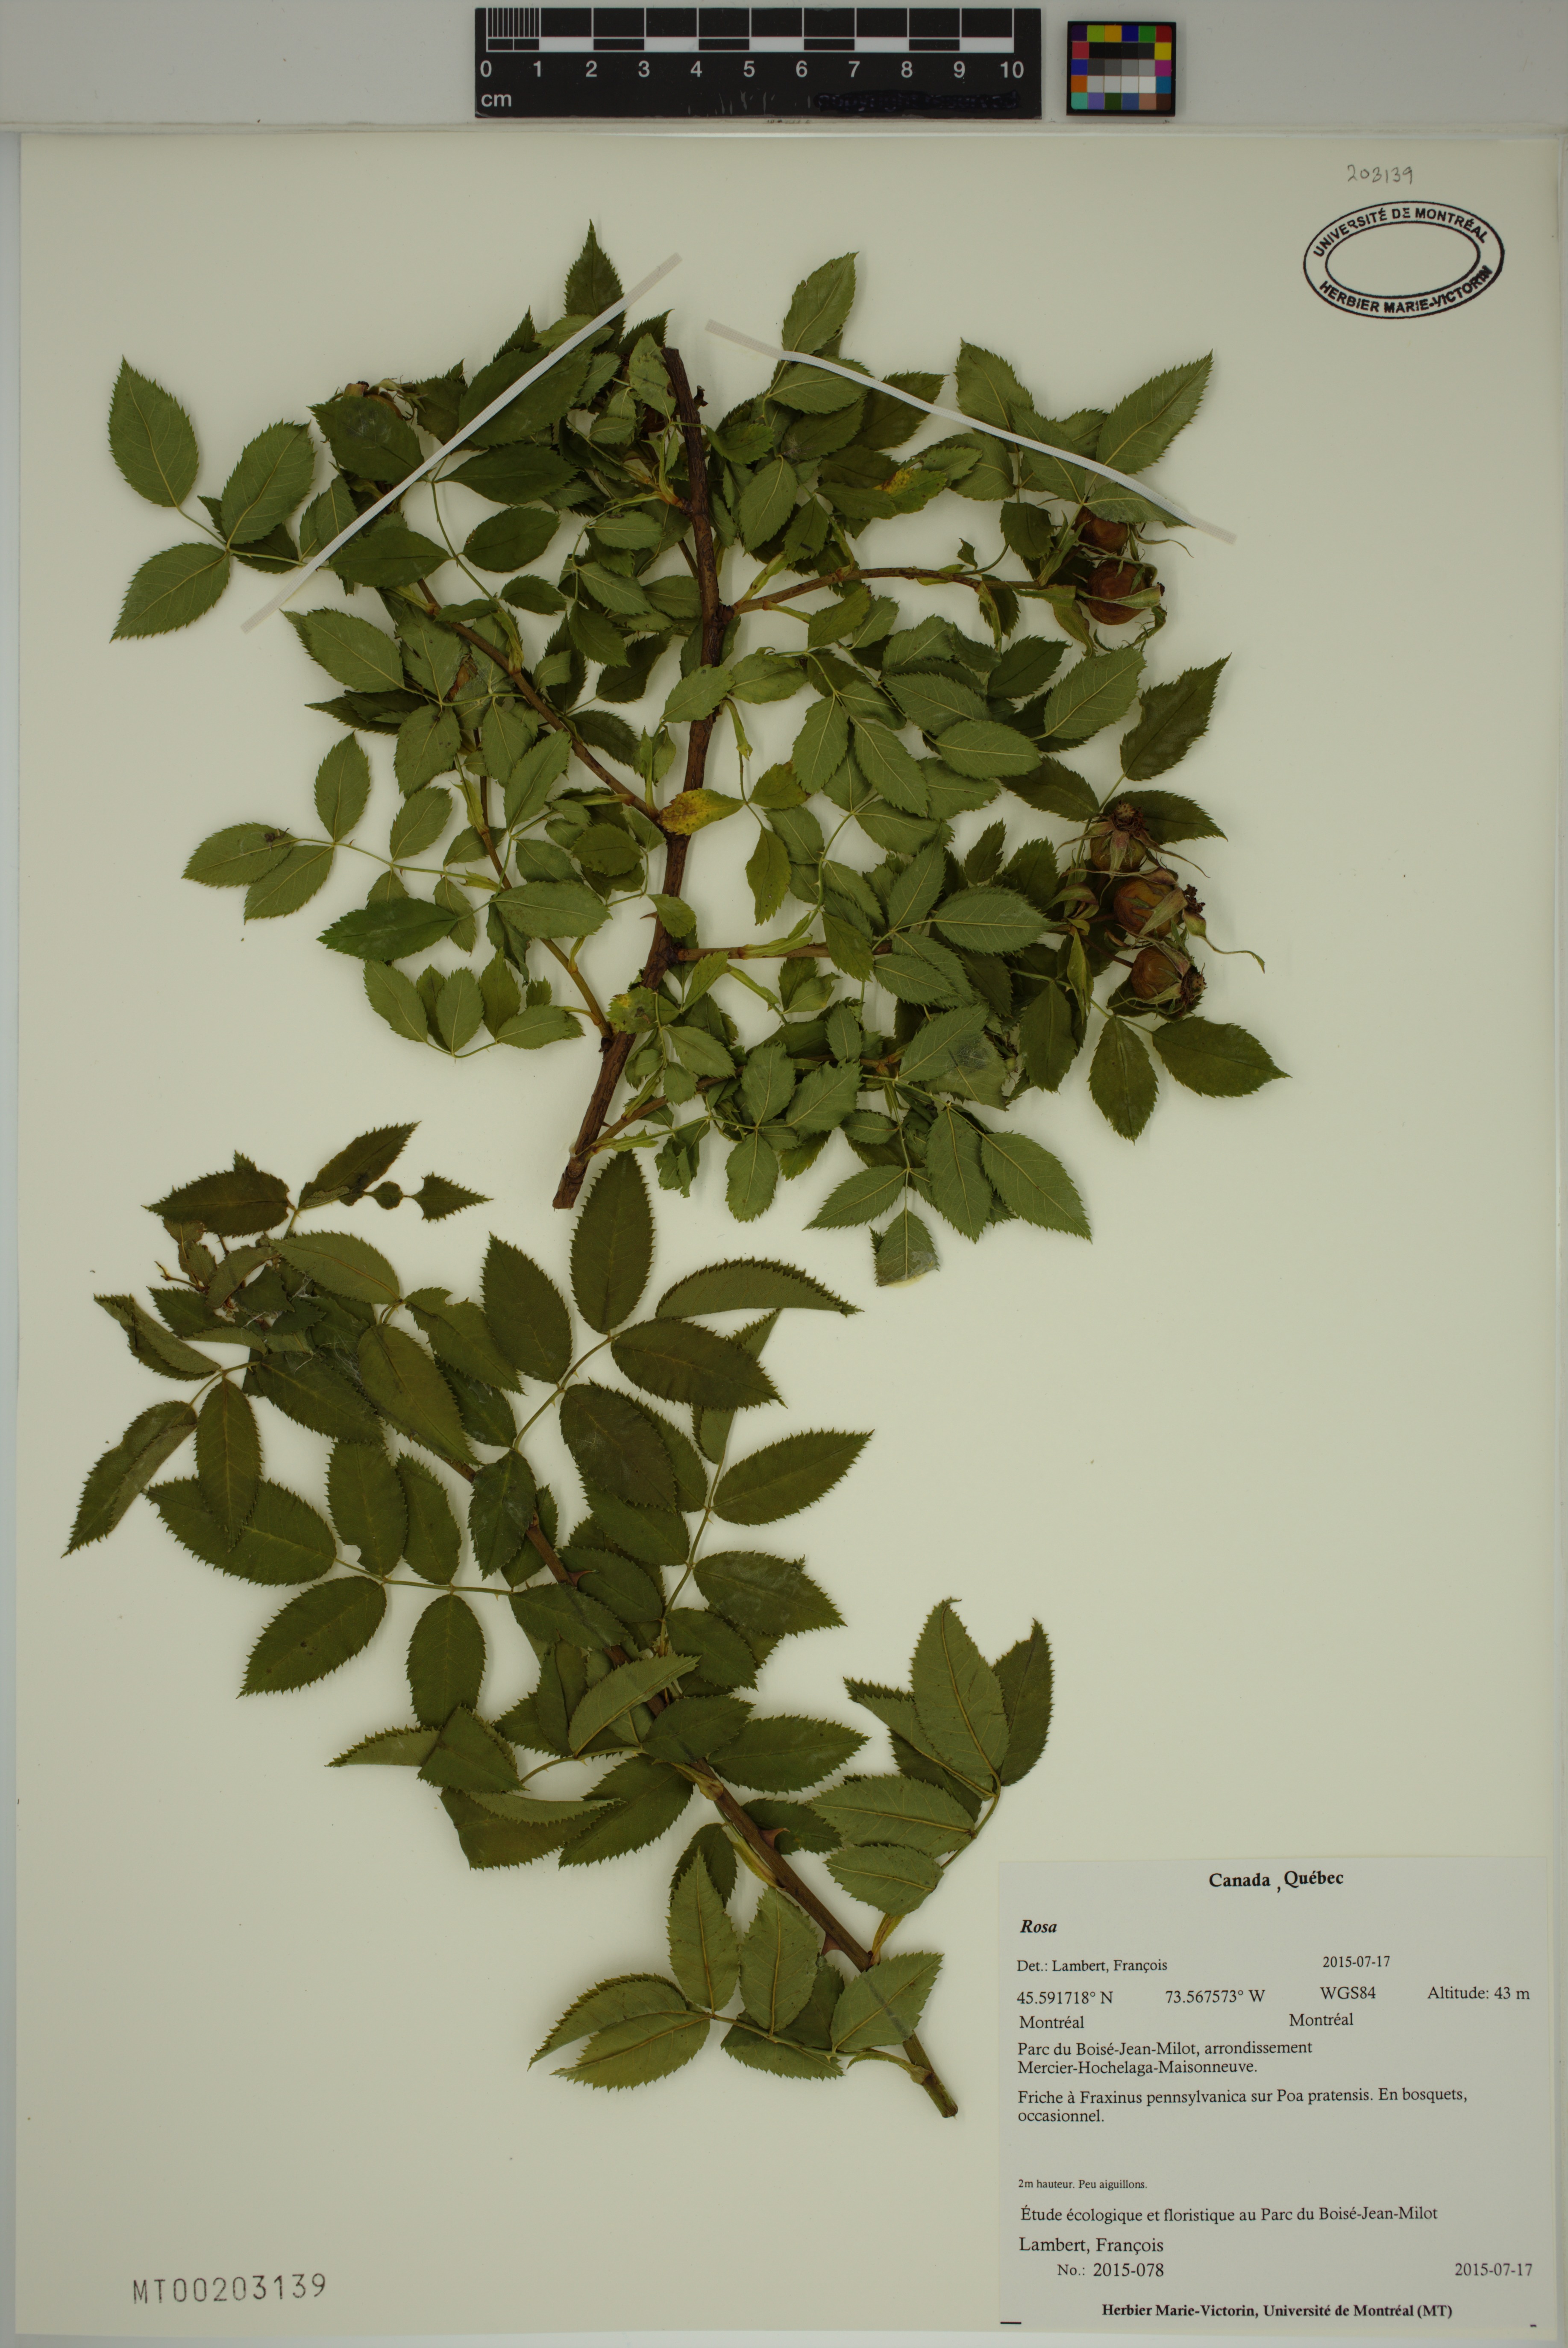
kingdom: Plantae
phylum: Tracheophyta
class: Magnoliopsida
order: Rosales
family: Rosaceae
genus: Rosa
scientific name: Rosa
